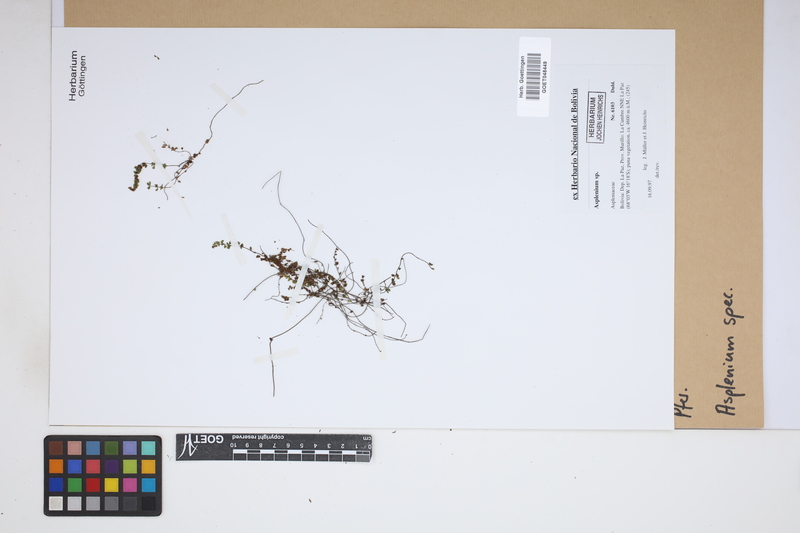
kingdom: Plantae
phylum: Tracheophyta
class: Polypodiopsida
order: Polypodiales
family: Aspleniaceae
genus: Asplenium
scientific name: Asplenium
